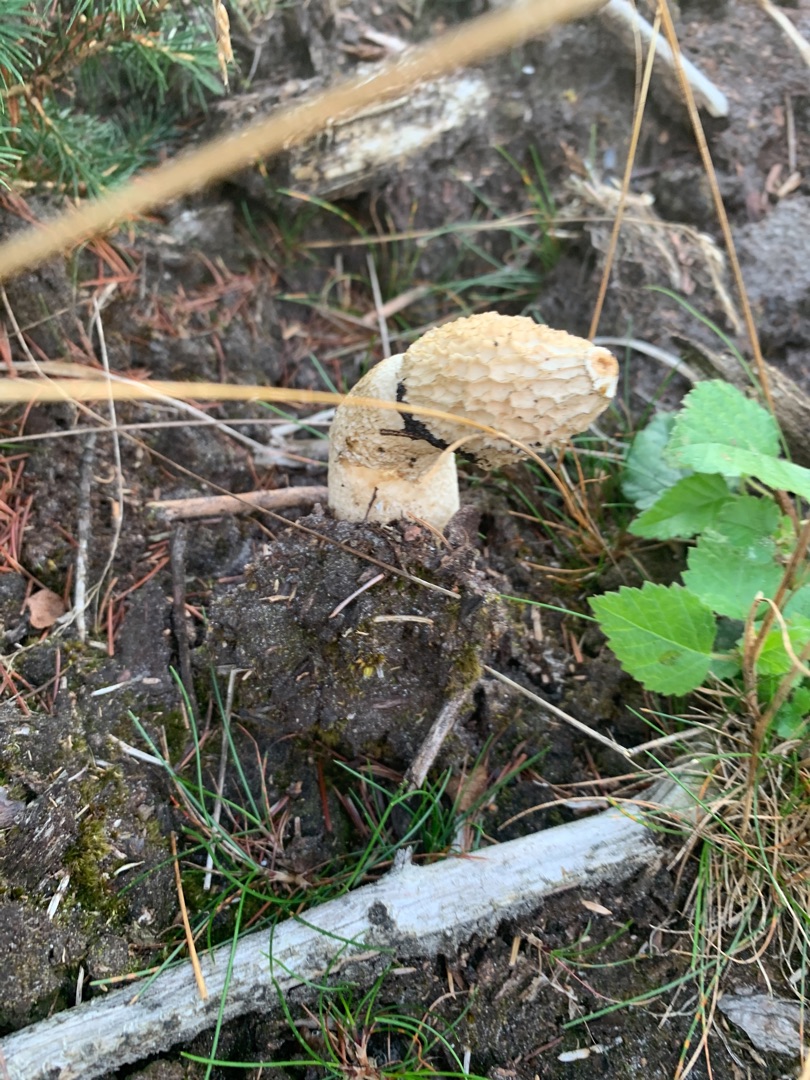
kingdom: Fungi
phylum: Basidiomycota
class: Agaricomycetes
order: Phallales
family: Phallaceae
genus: Phallus
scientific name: Phallus impudicus
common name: Almindelig stinksvamp
